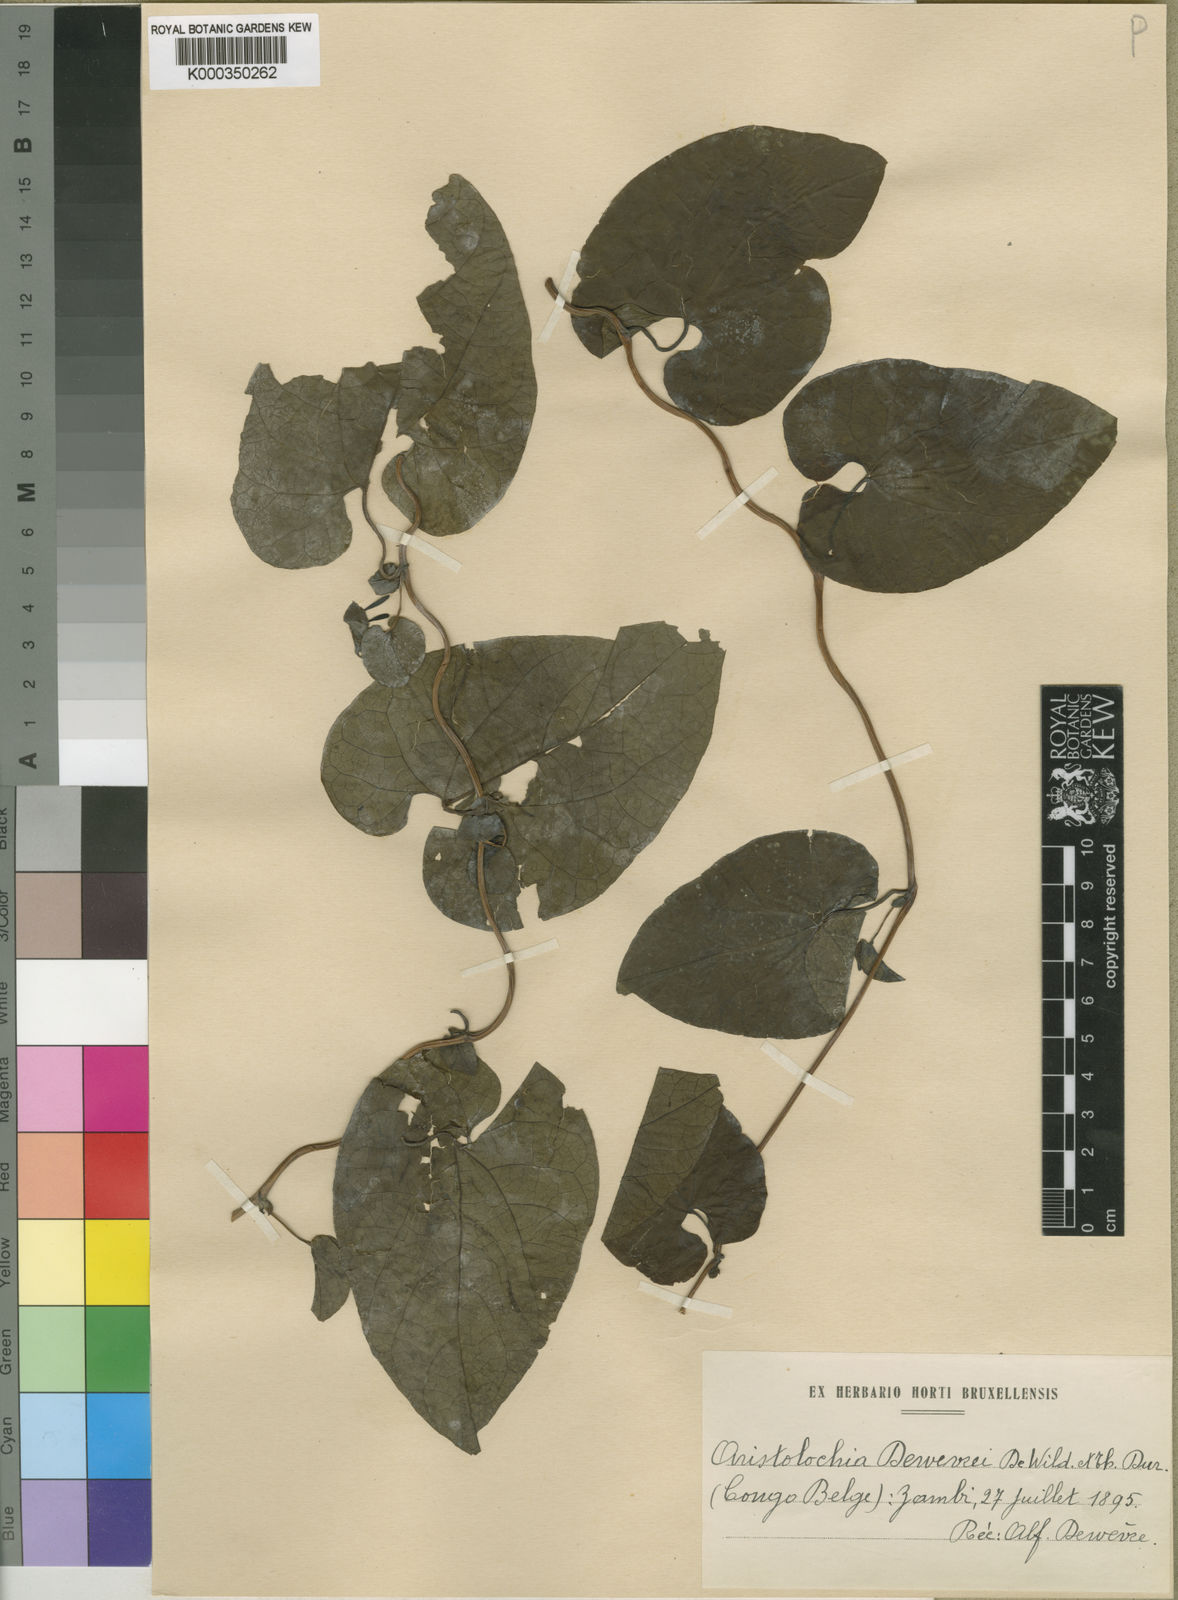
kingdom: Plantae
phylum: Tracheophyta
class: Magnoliopsida
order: Piperales
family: Aristolochiaceae
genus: Aristolochia
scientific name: Aristolochia albida
